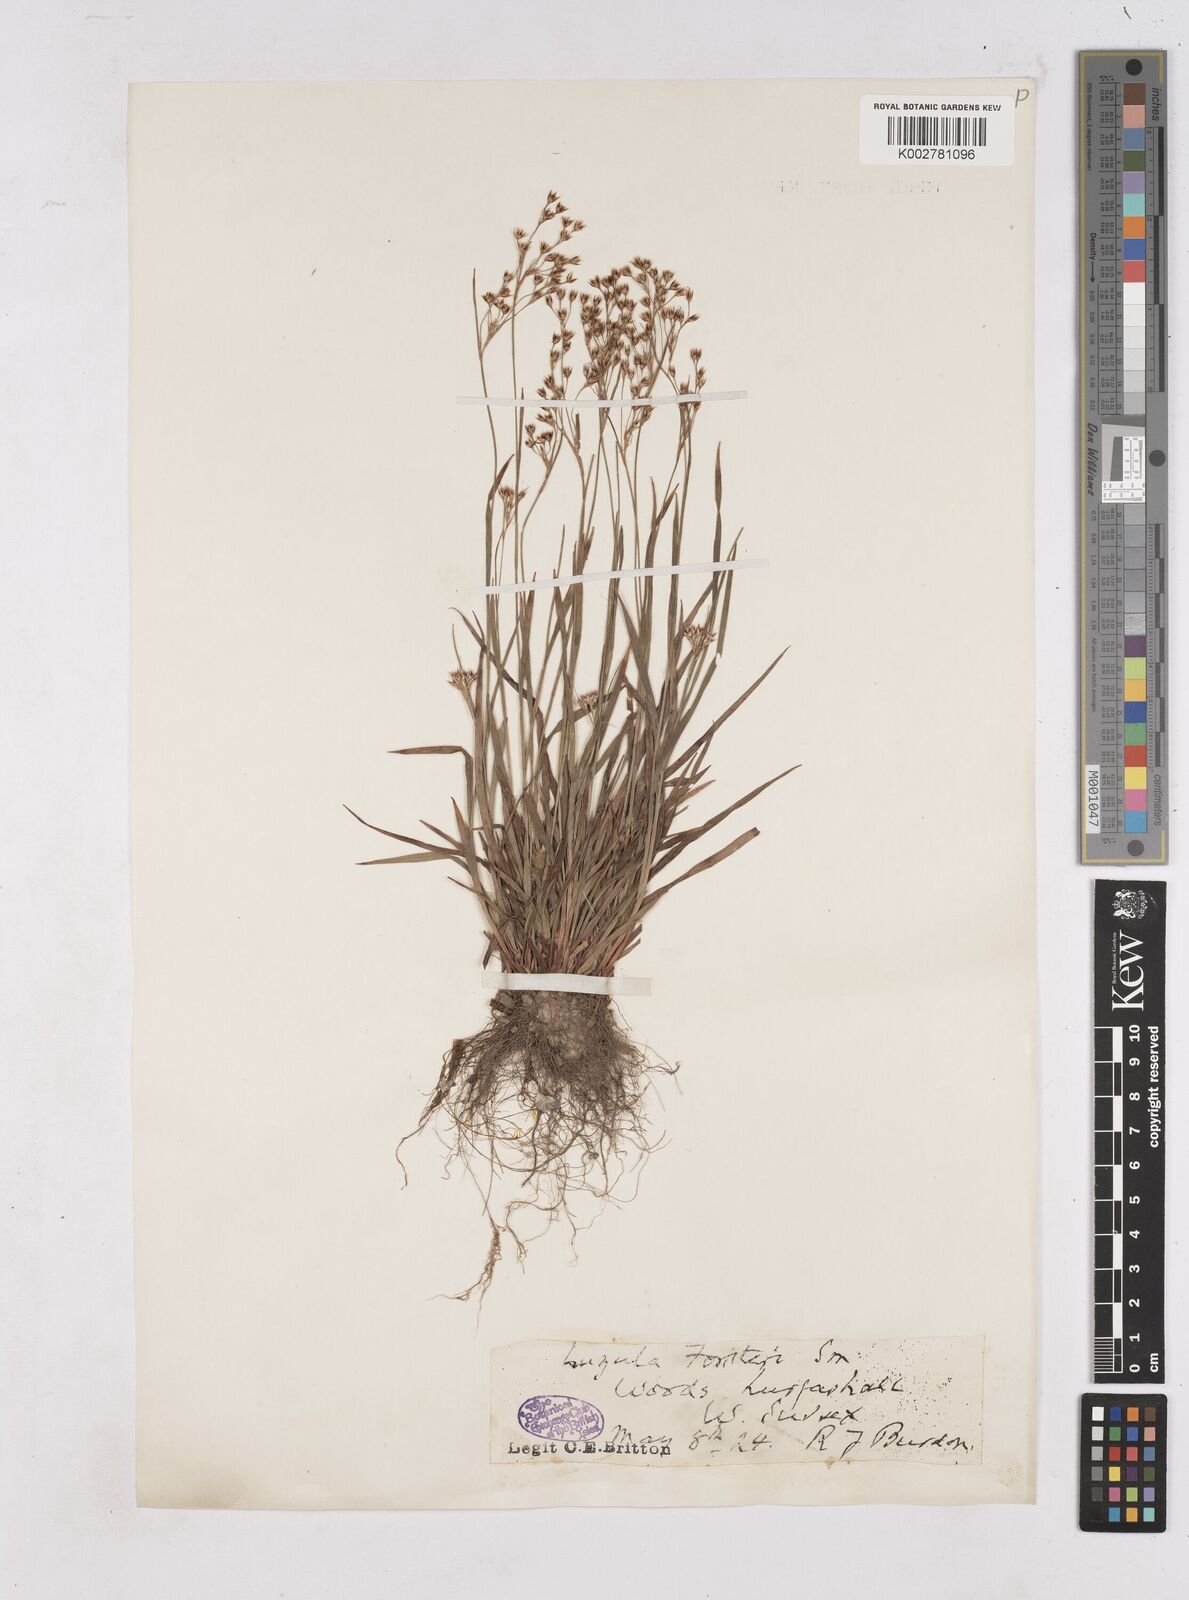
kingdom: Plantae
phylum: Tracheophyta
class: Liliopsida
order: Poales
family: Juncaceae
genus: Luzula
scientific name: Luzula forsteri
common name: Southern wood-rush
